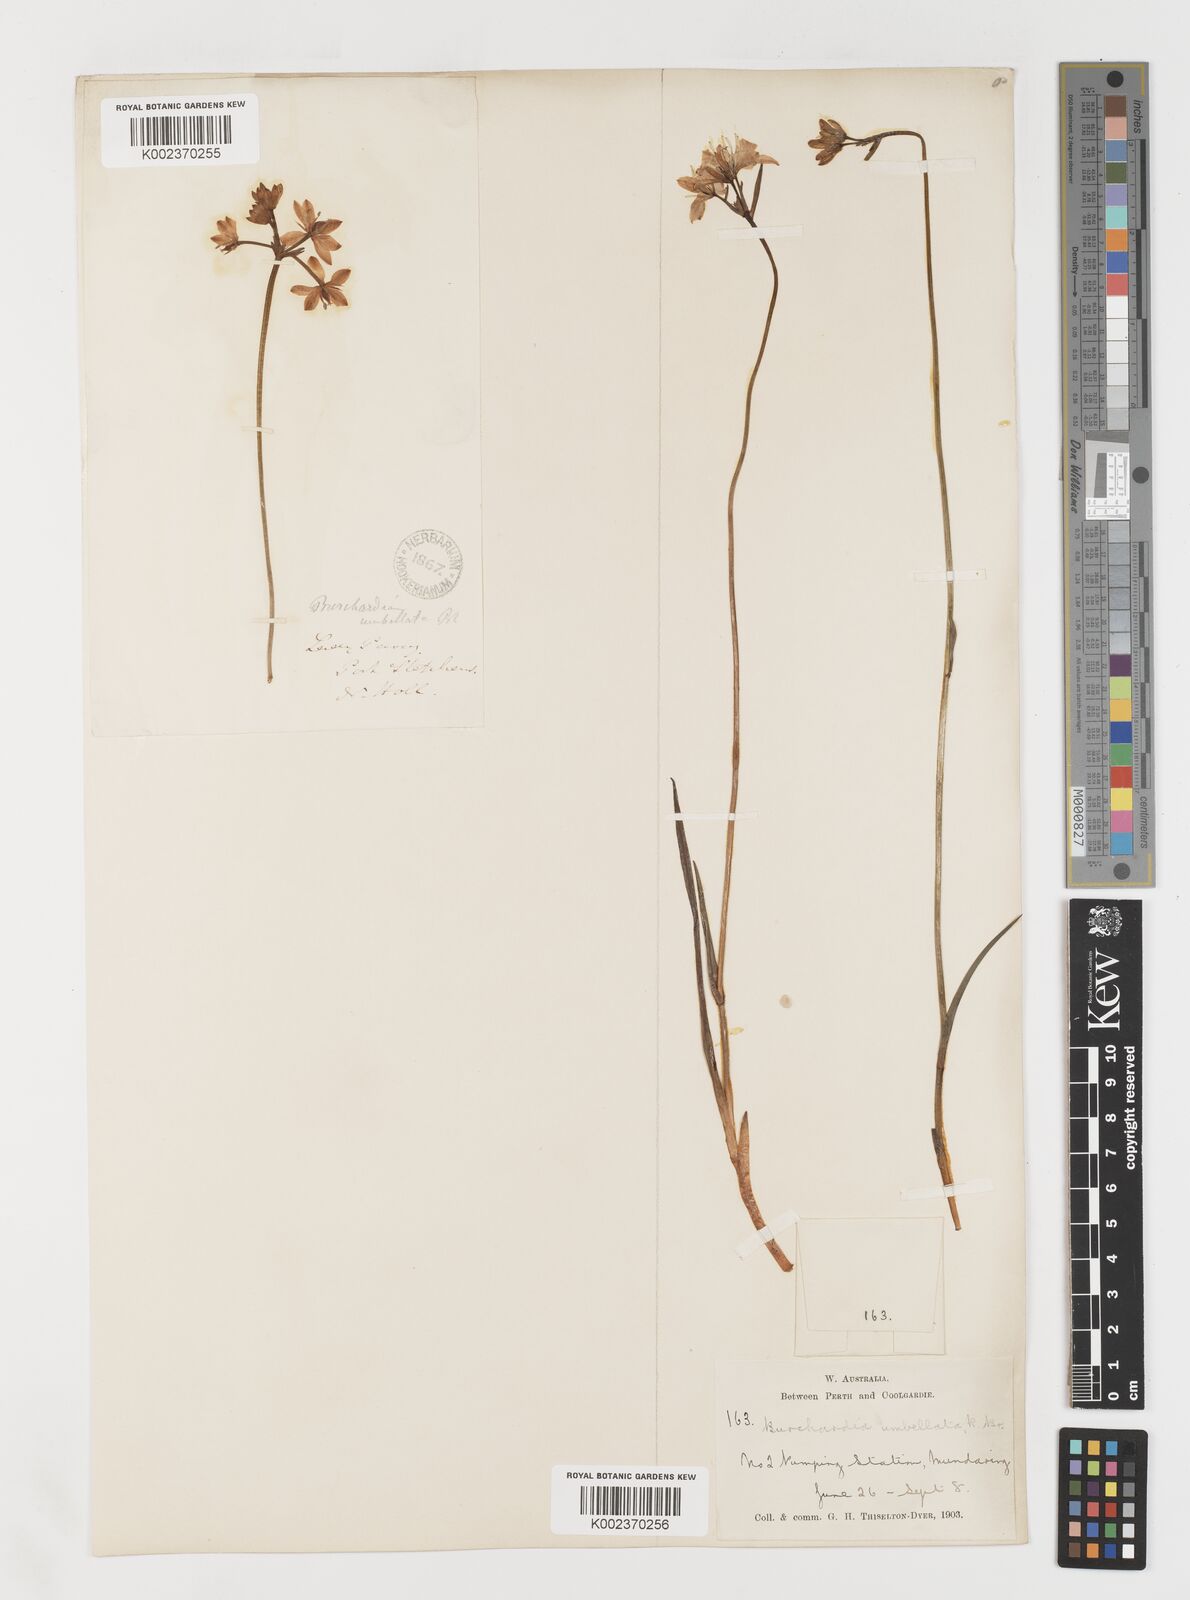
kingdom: Plantae
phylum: Tracheophyta
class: Liliopsida
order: Liliales
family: Colchicaceae
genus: Burchardia
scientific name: Burchardia umbellata
